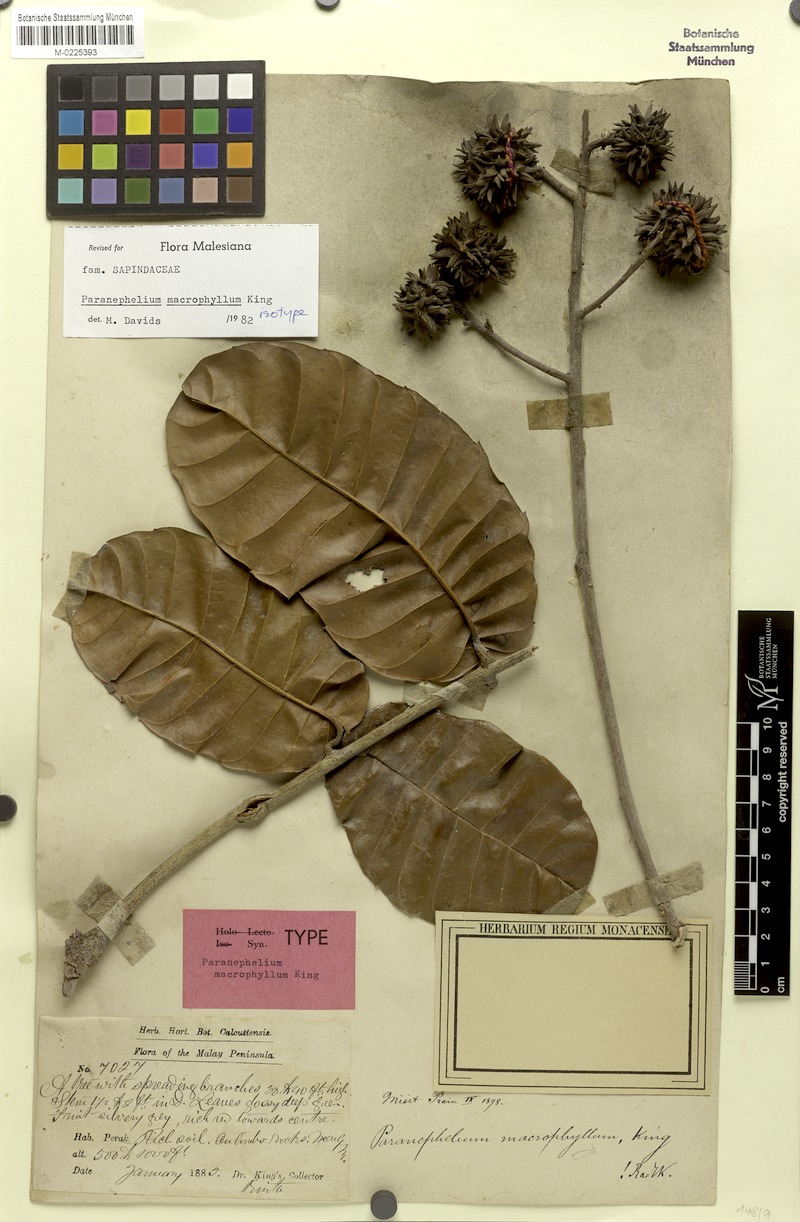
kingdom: Plantae
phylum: Tracheophyta
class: Magnoliopsida
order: Sapindales
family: Sapindaceae
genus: Paranephelium
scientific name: Paranephelium macrophyllum
